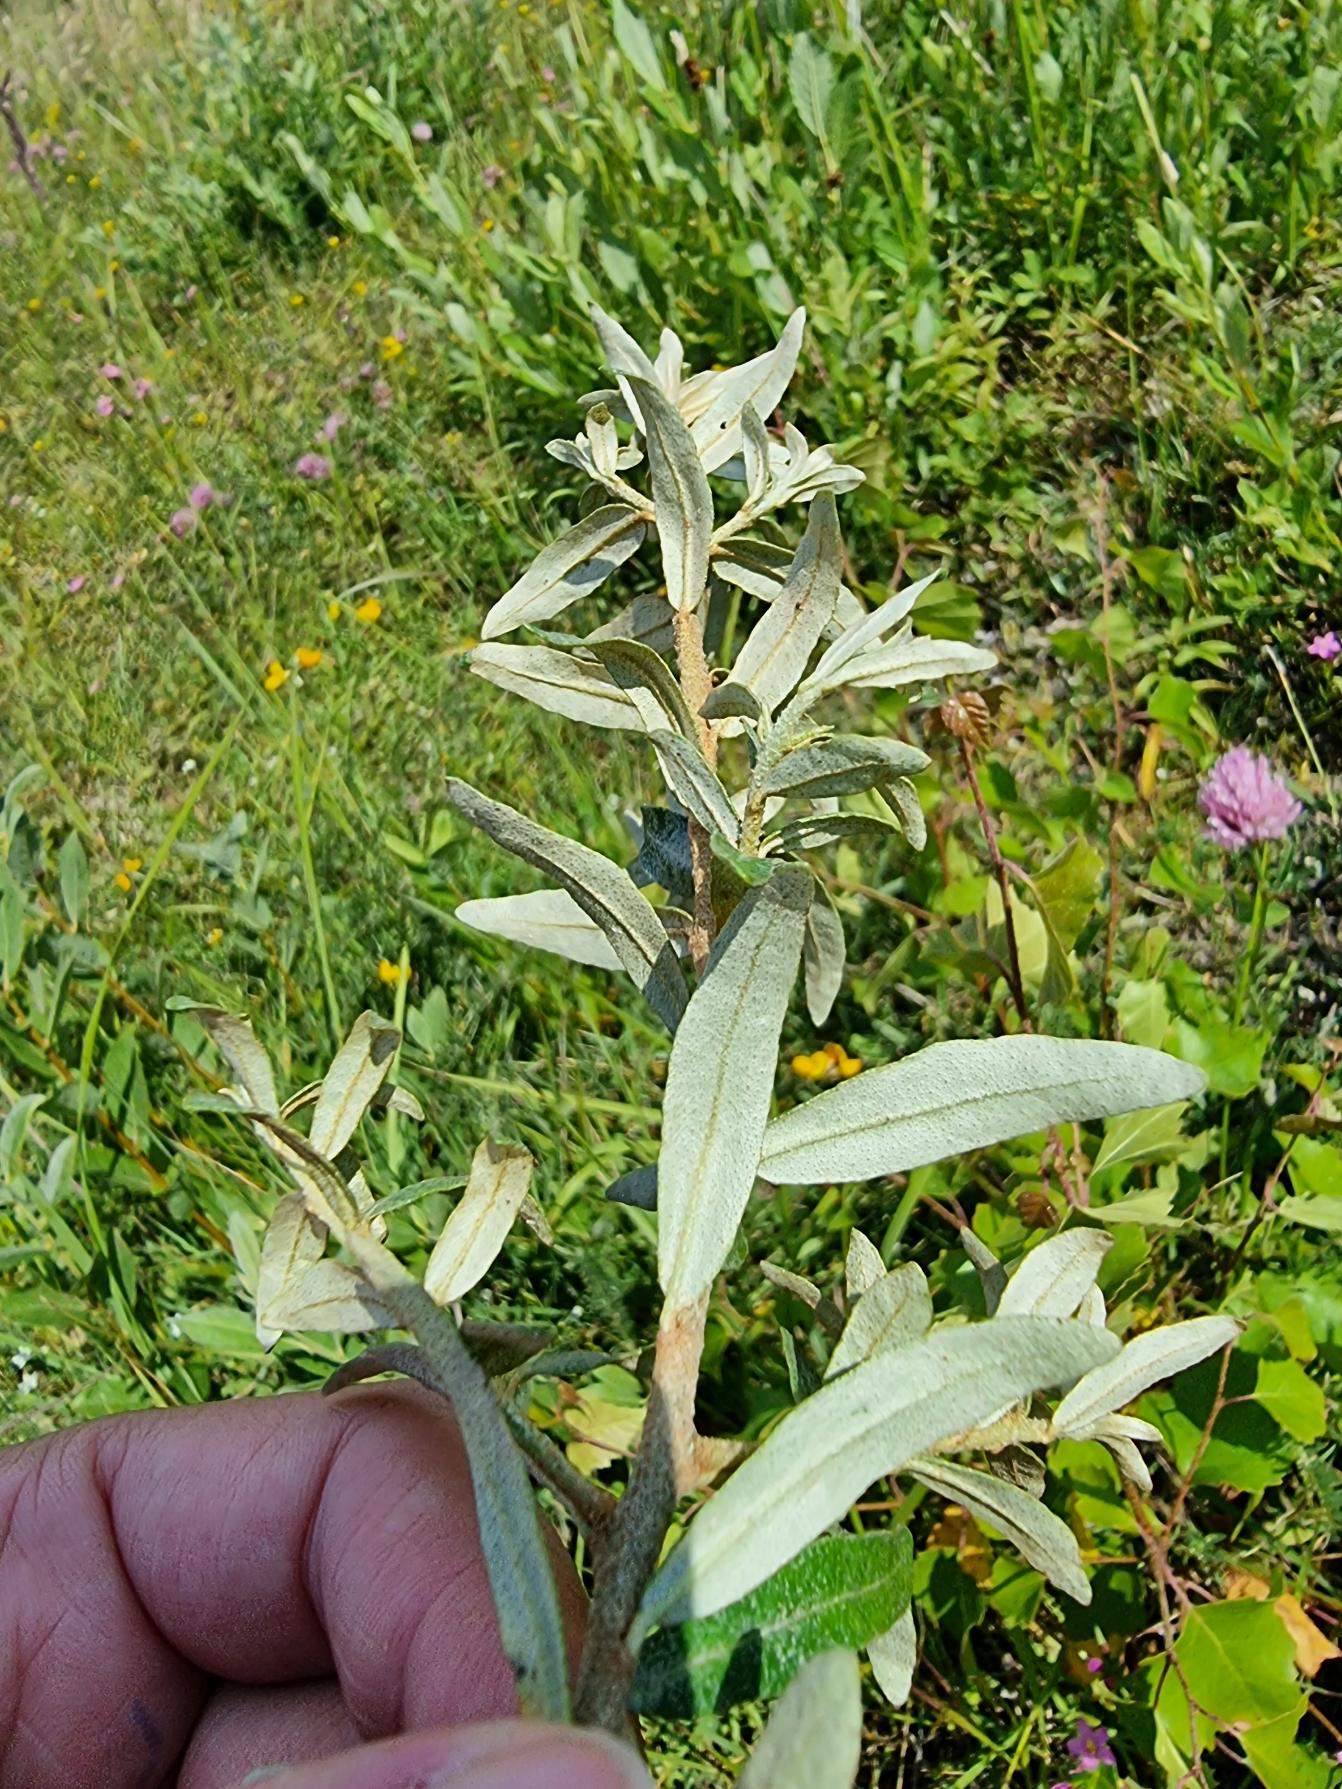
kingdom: Plantae
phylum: Tracheophyta
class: Magnoliopsida
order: Rosales
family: Elaeagnaceae
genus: Hippophae
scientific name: Hippophae rhamnoides
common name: Havtorn
